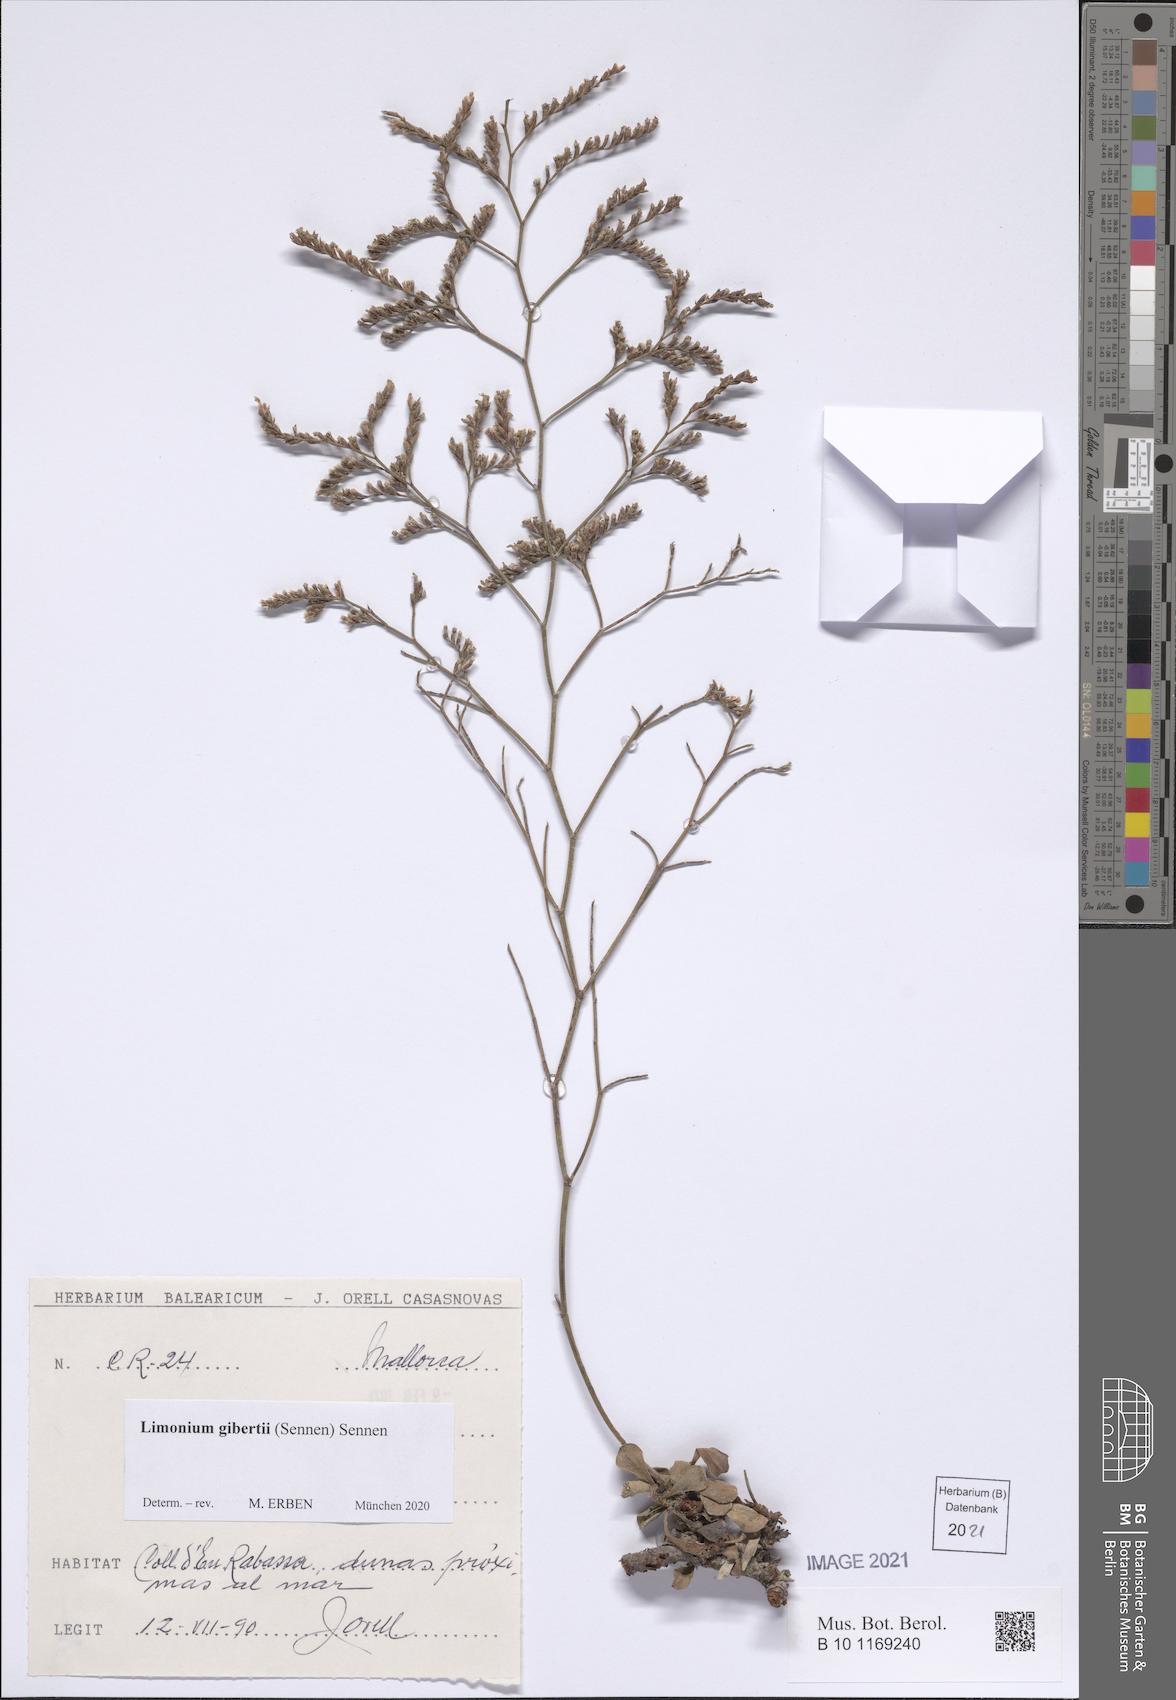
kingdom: Plantae
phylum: Tracheophyta
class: Magnoliopsida
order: Caryophyllales
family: Plumbaginaceae
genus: Limonium
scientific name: Limonium gibertii
